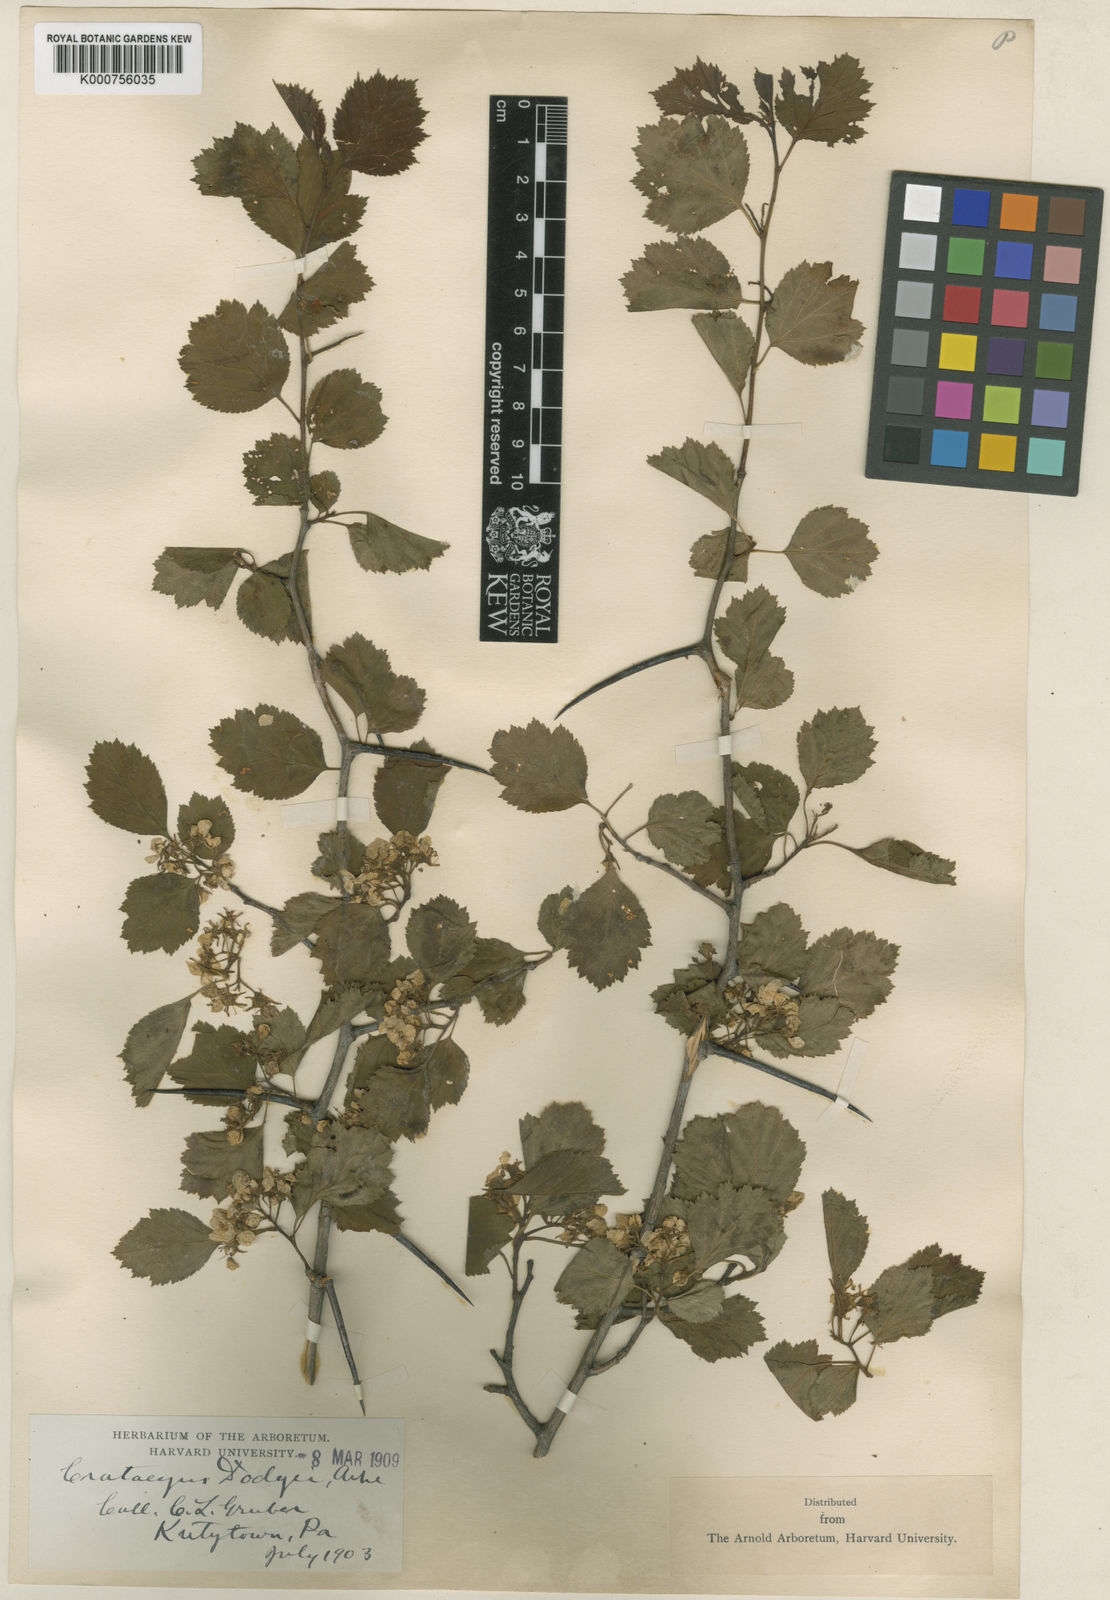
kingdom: Plantae
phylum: Tracheophyta
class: Magnoliopsida
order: Rosales
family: Rosaceae
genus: Crataegus
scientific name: Crataegus dodgei
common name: Dodge's hawthorn
